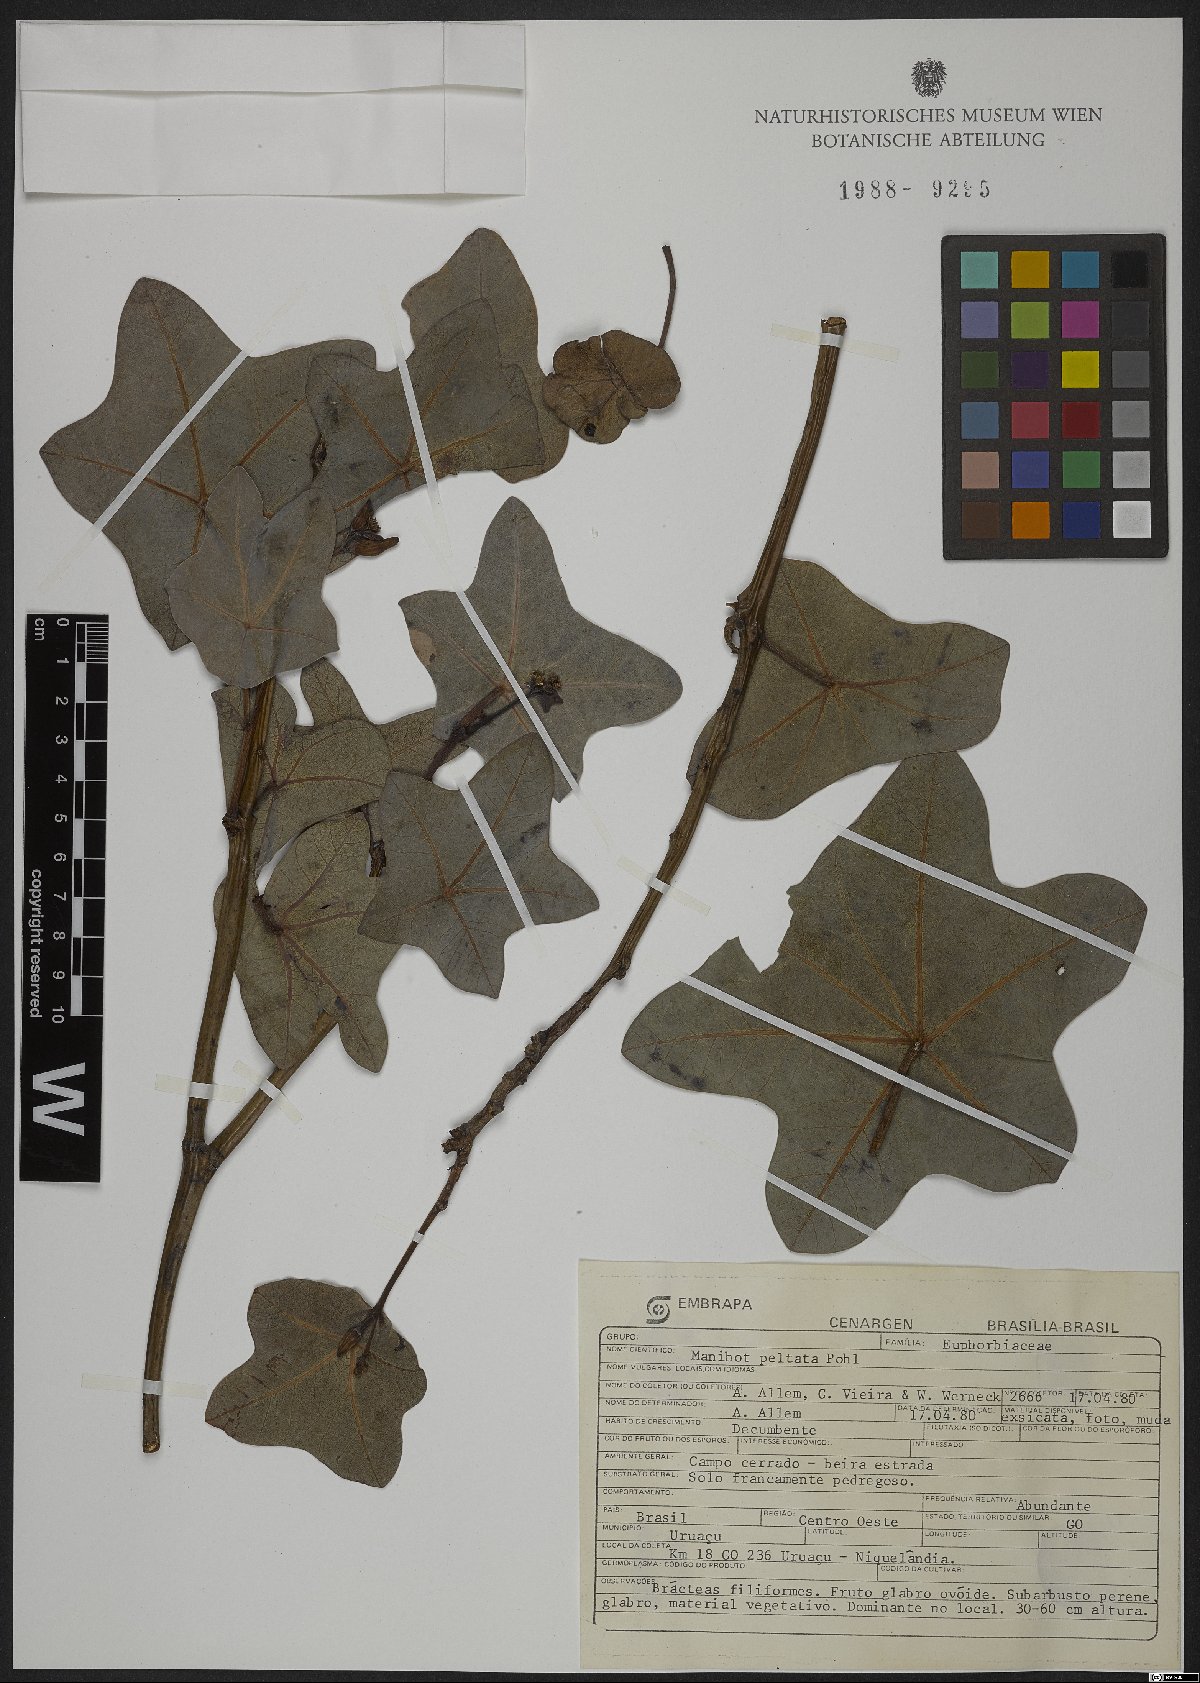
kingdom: Plantae
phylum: Tracheophyta
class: Magnoliopsida
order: Malpighiales
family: Euphorbiaceae
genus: Manihot
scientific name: Manihot peltata
